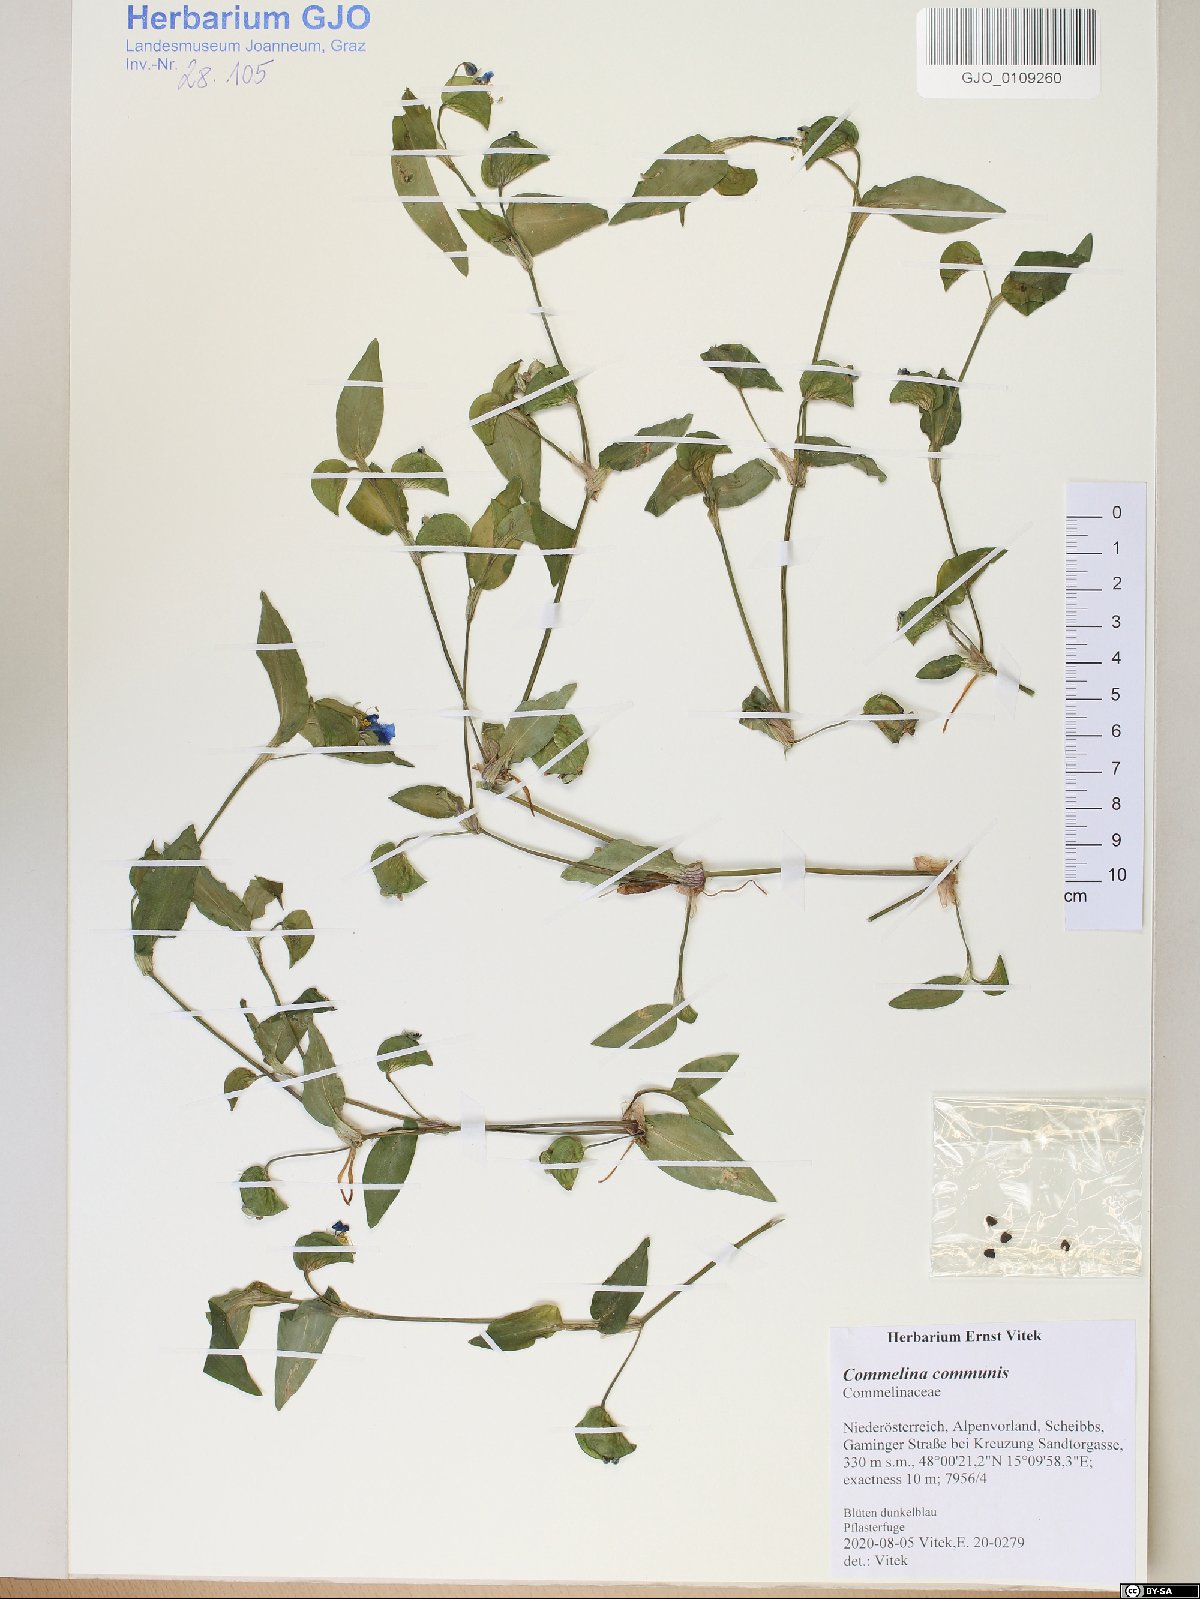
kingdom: Plantae
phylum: Tracheophyta
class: Liliopsida
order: Commelinales
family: Commelinaceae
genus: Commelina
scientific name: Commelina communis
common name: Asiatic dayflower
